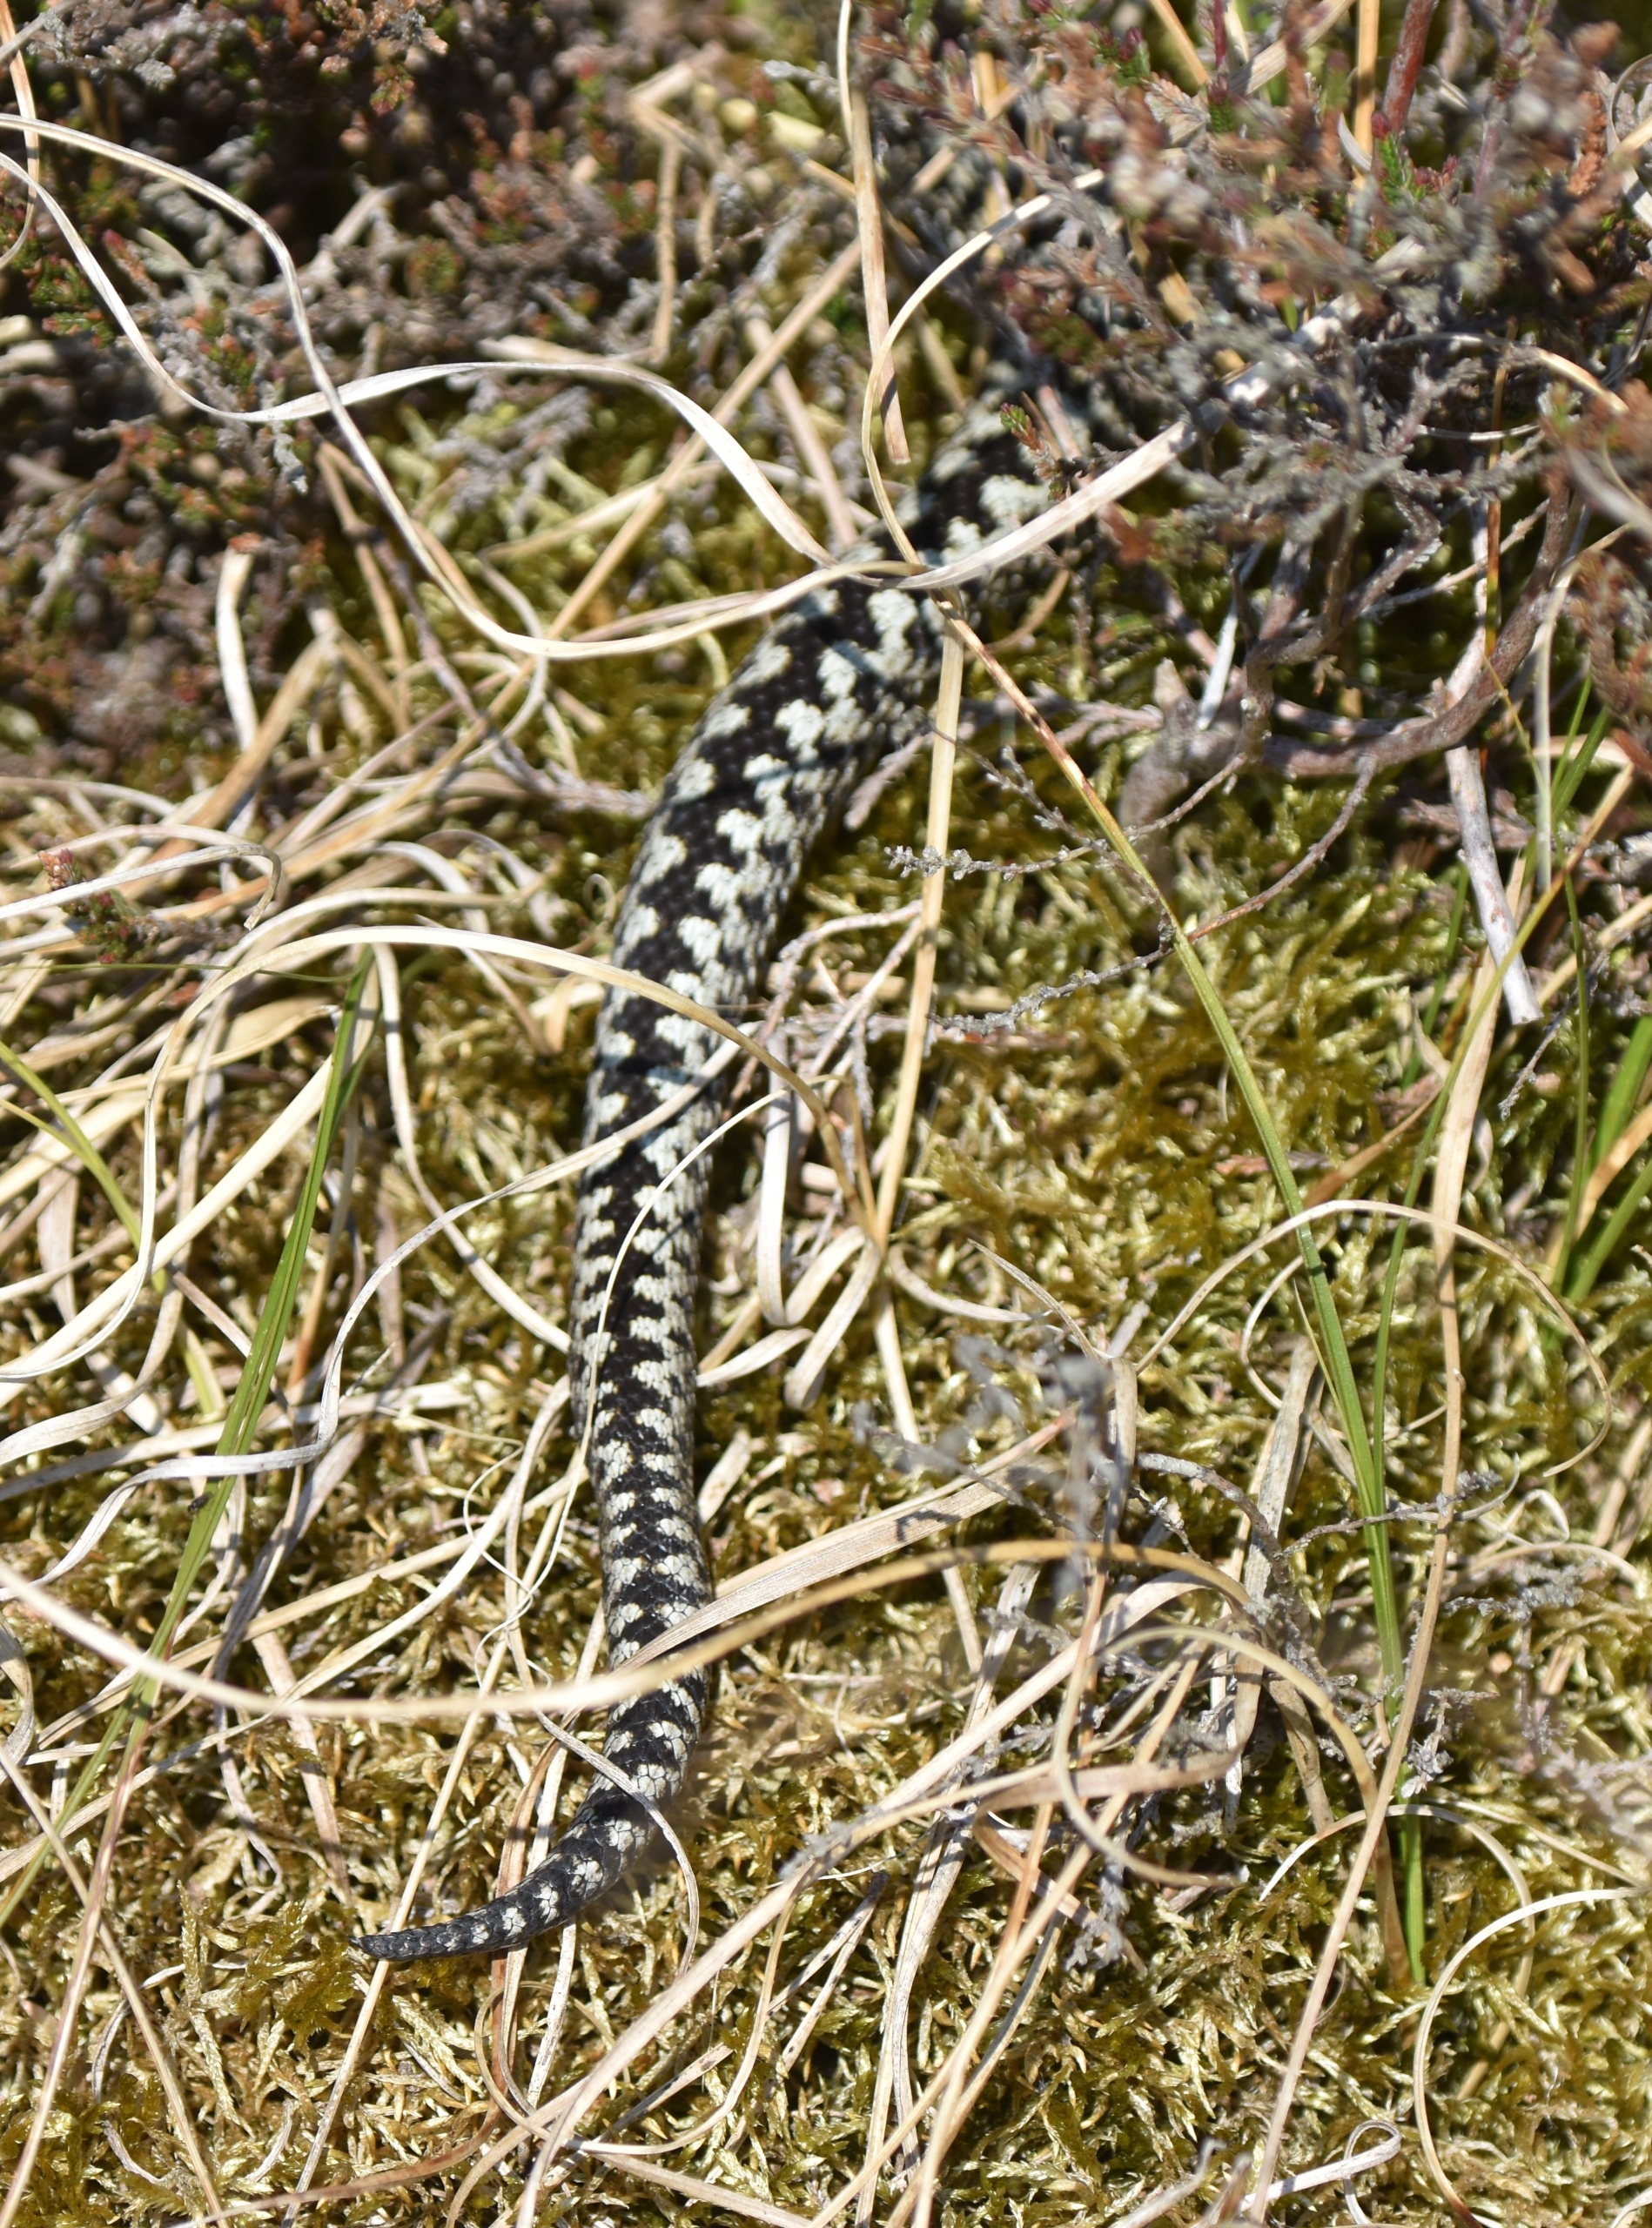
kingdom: Animalia
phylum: Chordata
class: Squamata
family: Viperidae
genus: Vipera
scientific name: Vipera berus
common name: Hugorm
